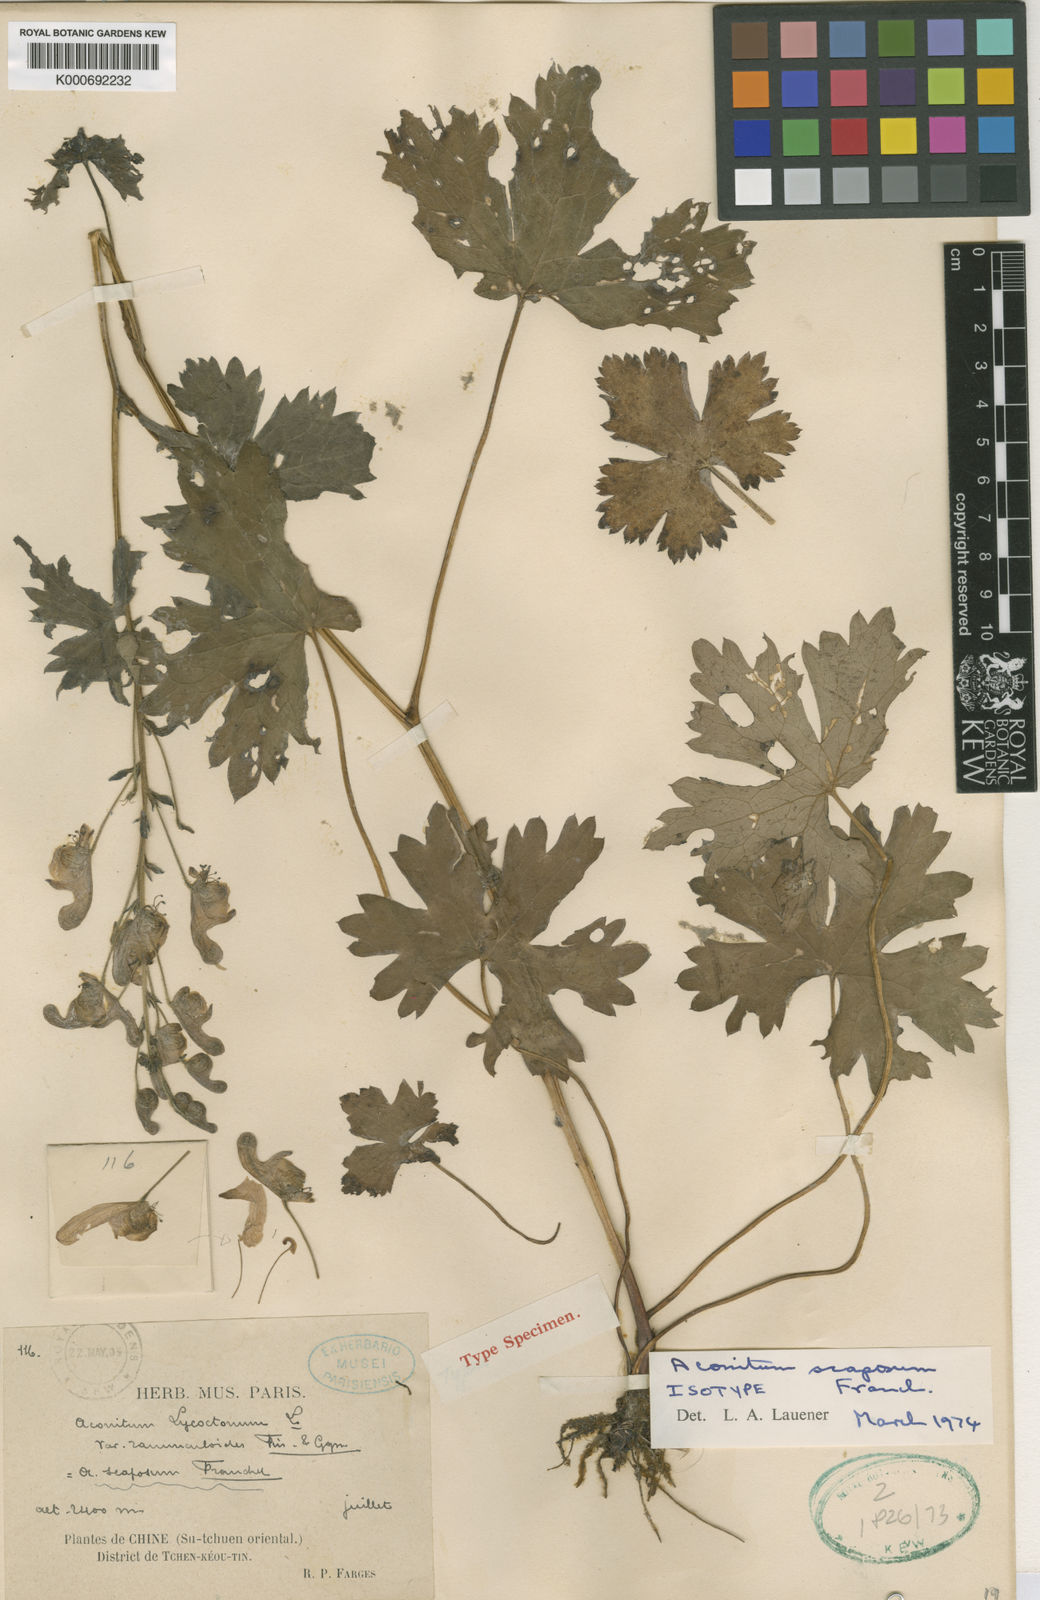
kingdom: Plantae
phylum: Tracheophyta
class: Magnoliopsida
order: Ranunculales
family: Ranunculaceae
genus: Aconitum
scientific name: Aconitum scaposum
